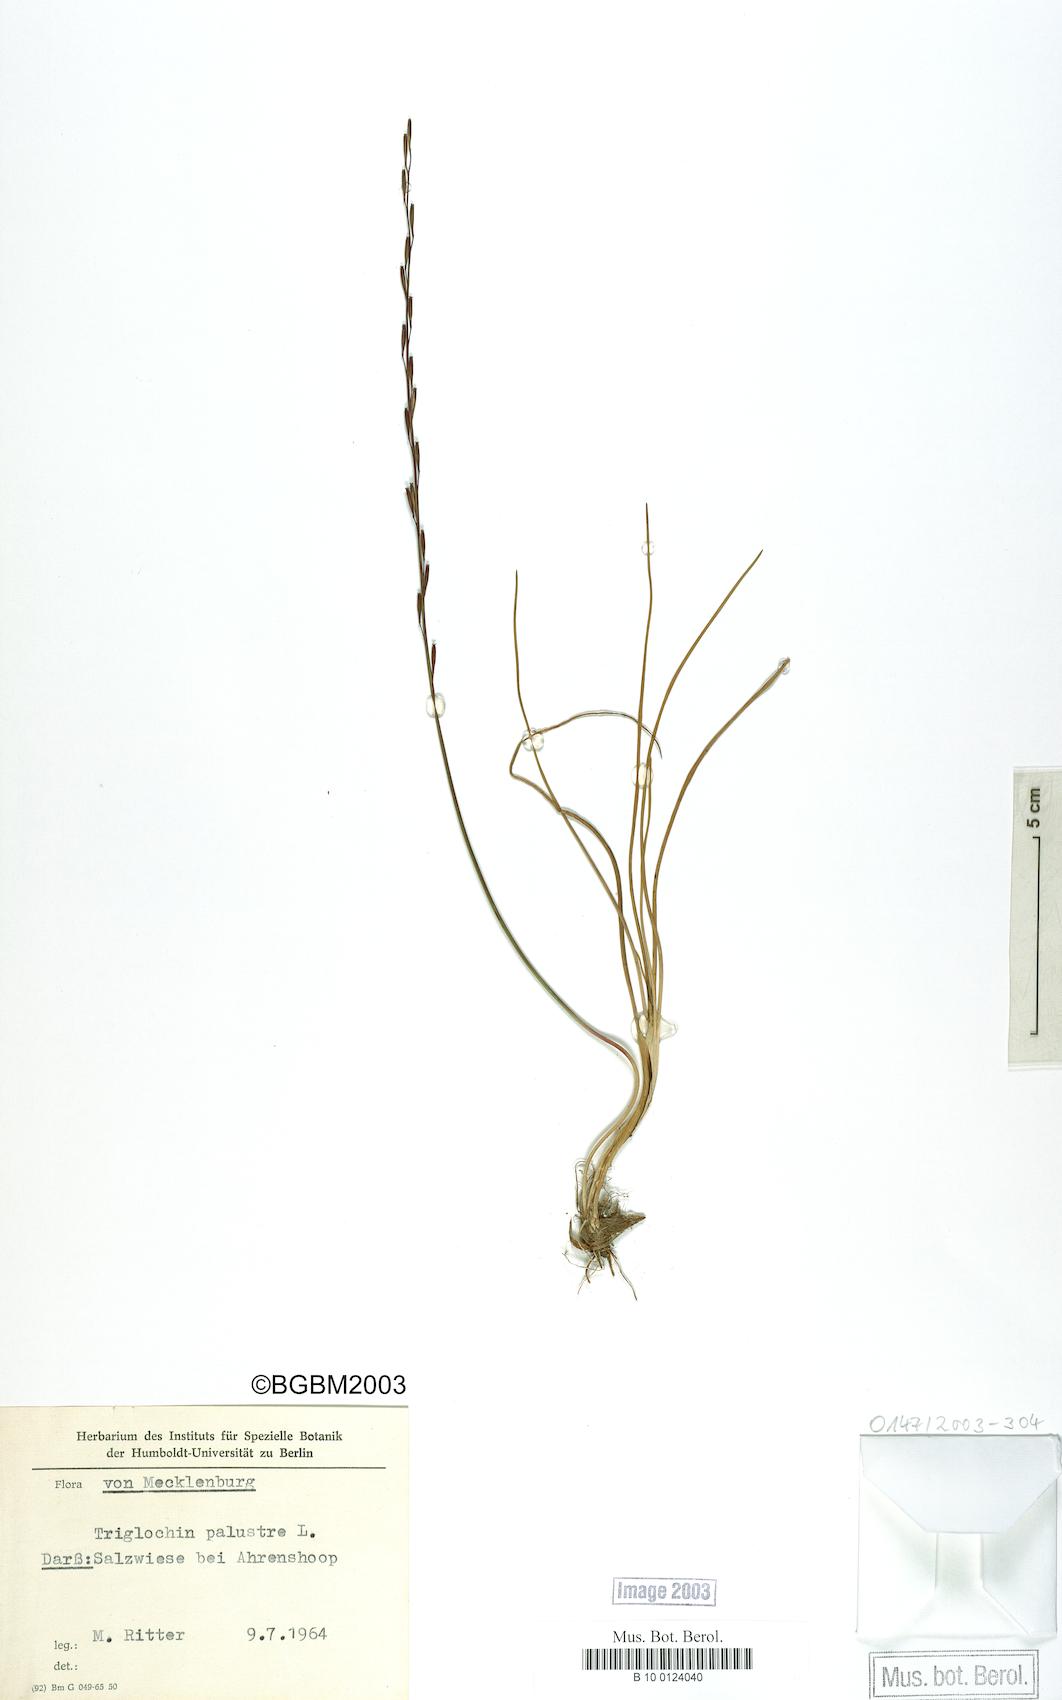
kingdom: Plantae
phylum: Tracheophyta
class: Liliopsida
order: Alismatales
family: Juncaginaceae
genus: Triglochin
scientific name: Triglochin palustris
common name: Marsh arrowgrass
